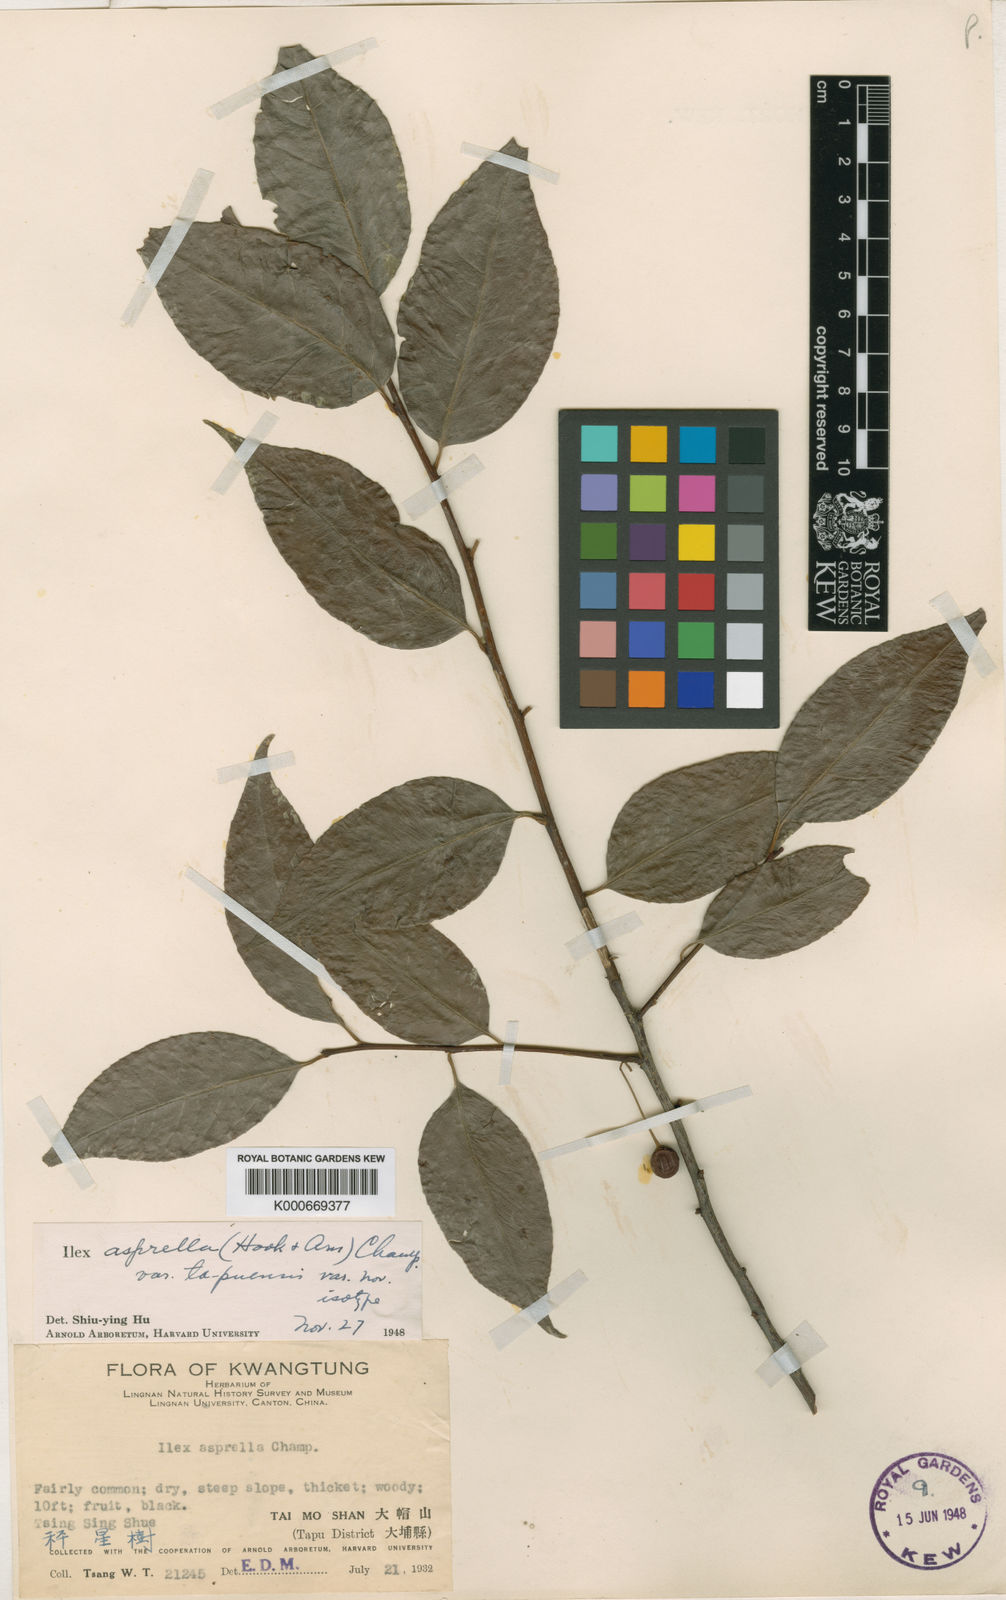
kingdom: Plantae
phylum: Tracheophyta
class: Magnoliopsida
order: Aquifoliales
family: Aquifoliaceae
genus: Ilex
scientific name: Ilex asprella
